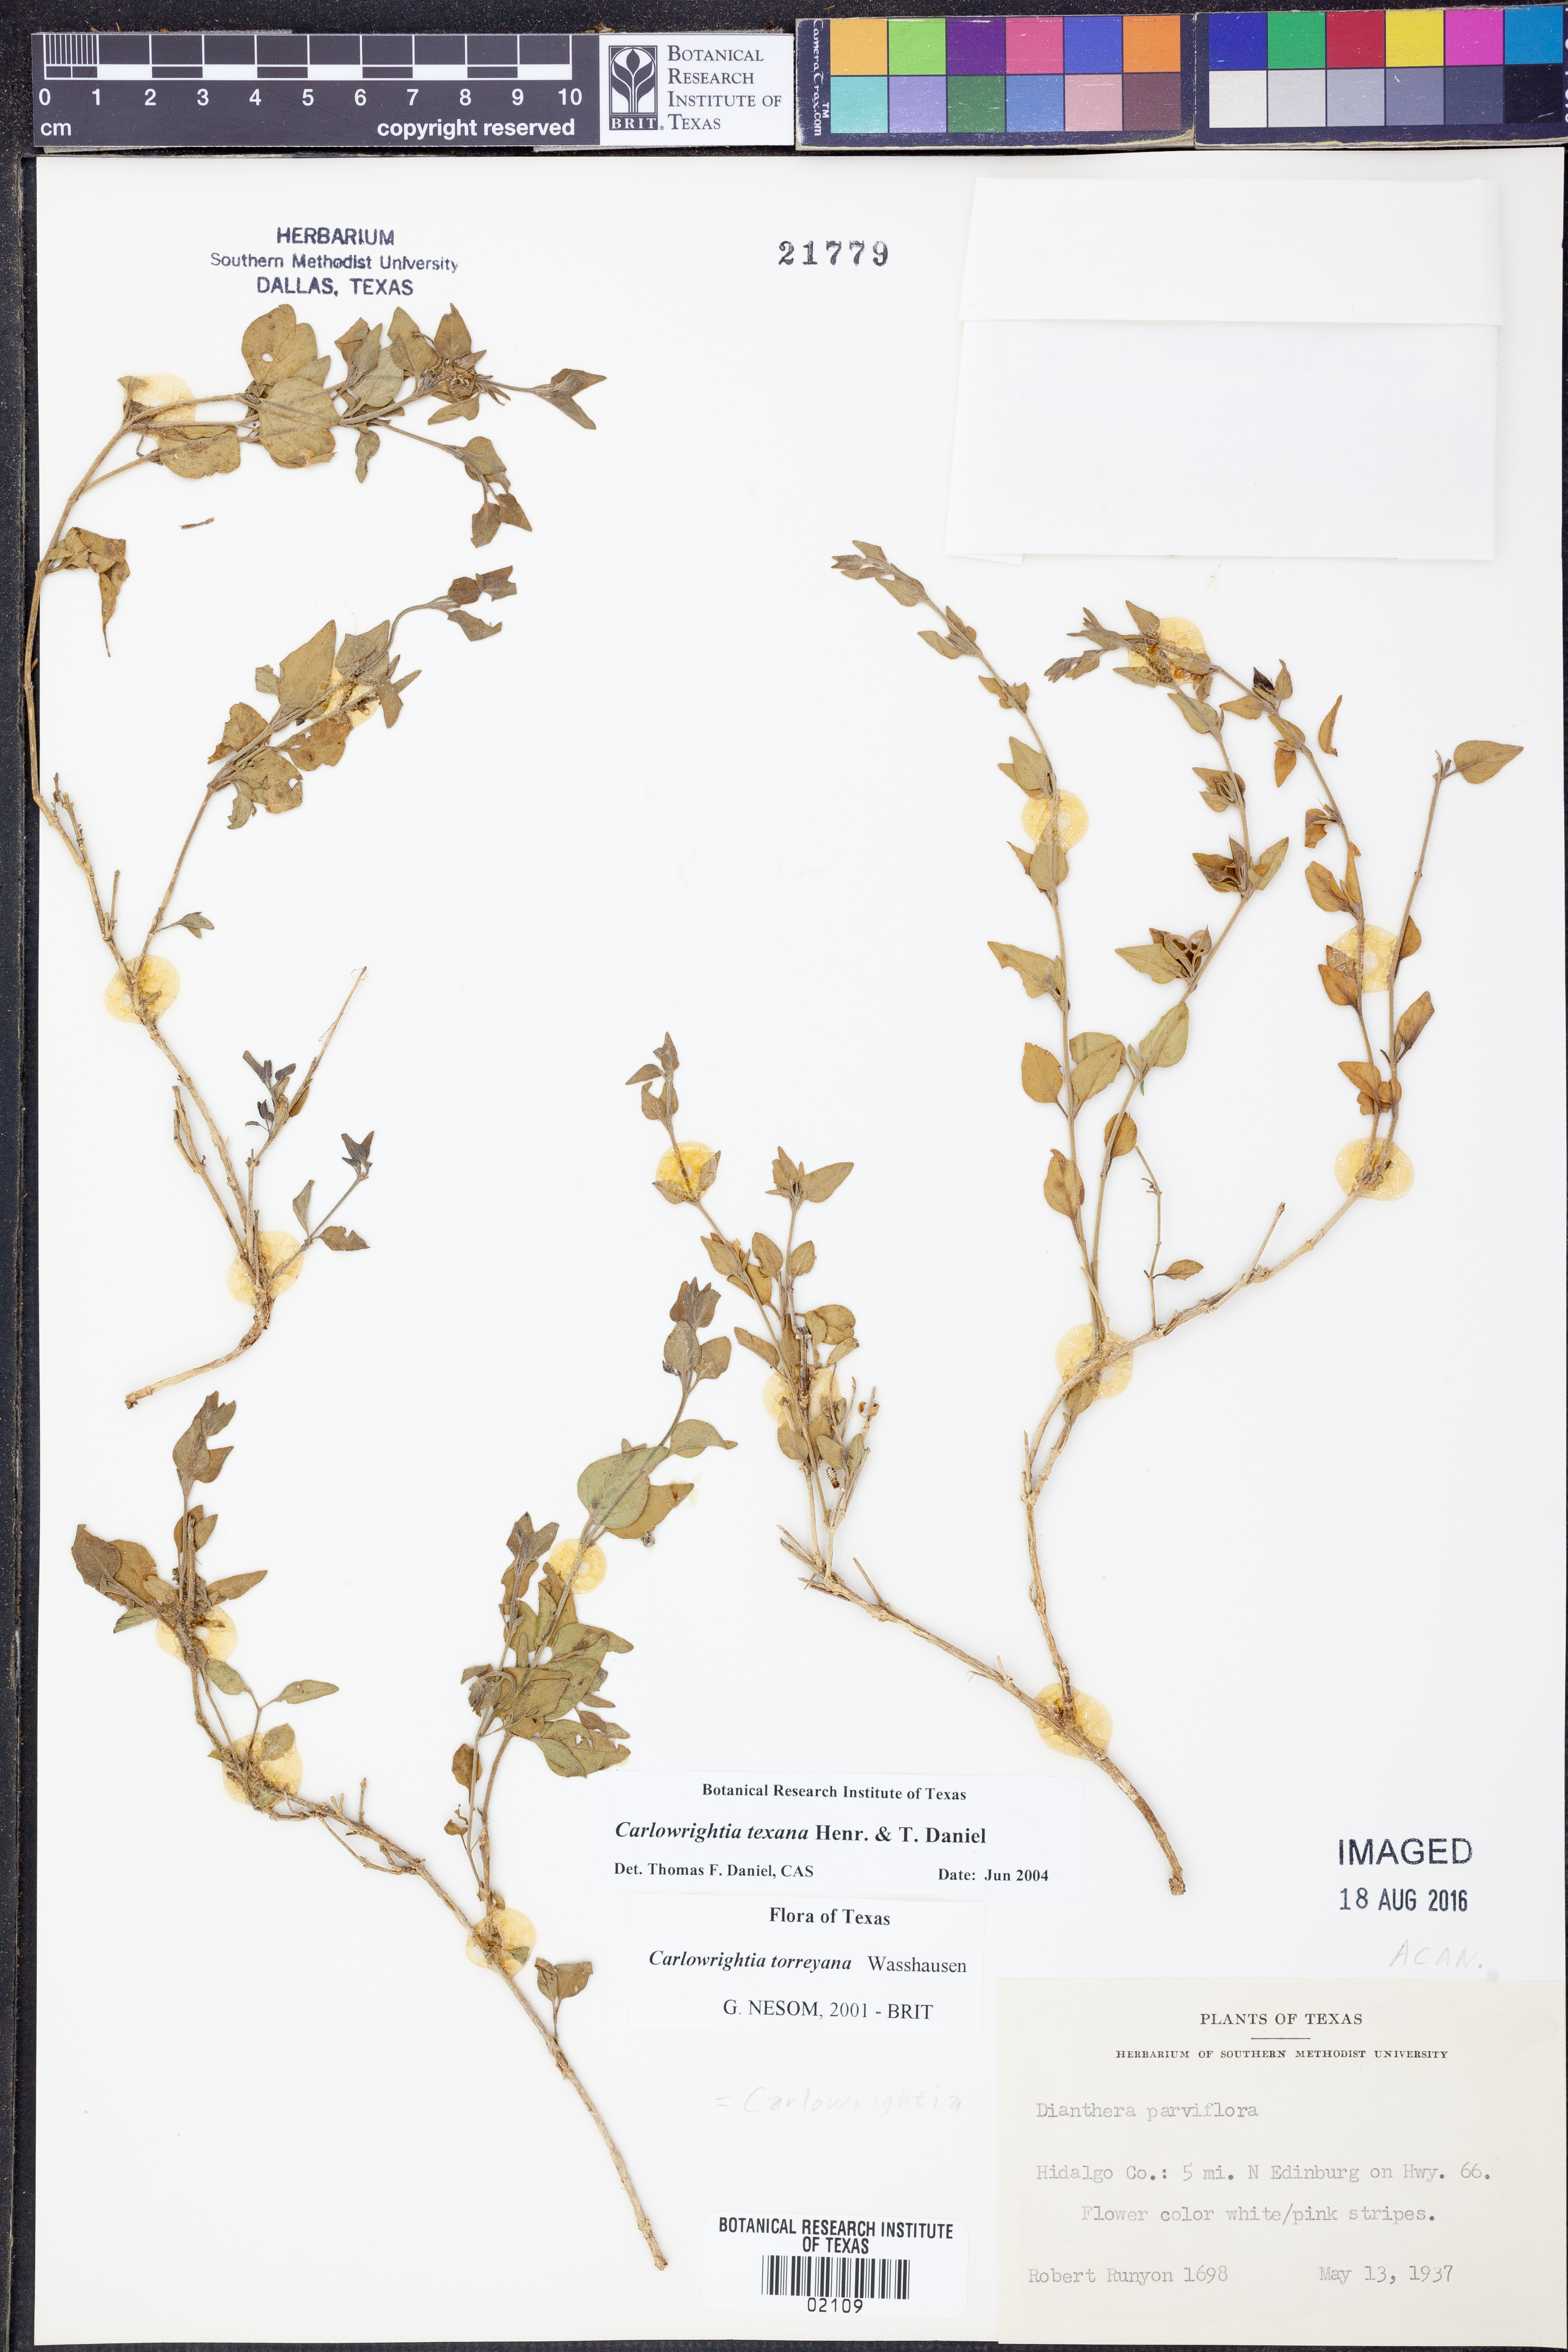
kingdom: Plantae
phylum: Tracheophyta
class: Magnoliopsida
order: Lamiales
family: Acanthaceae
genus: Carlowrightia
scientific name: Carlowrightia texana
